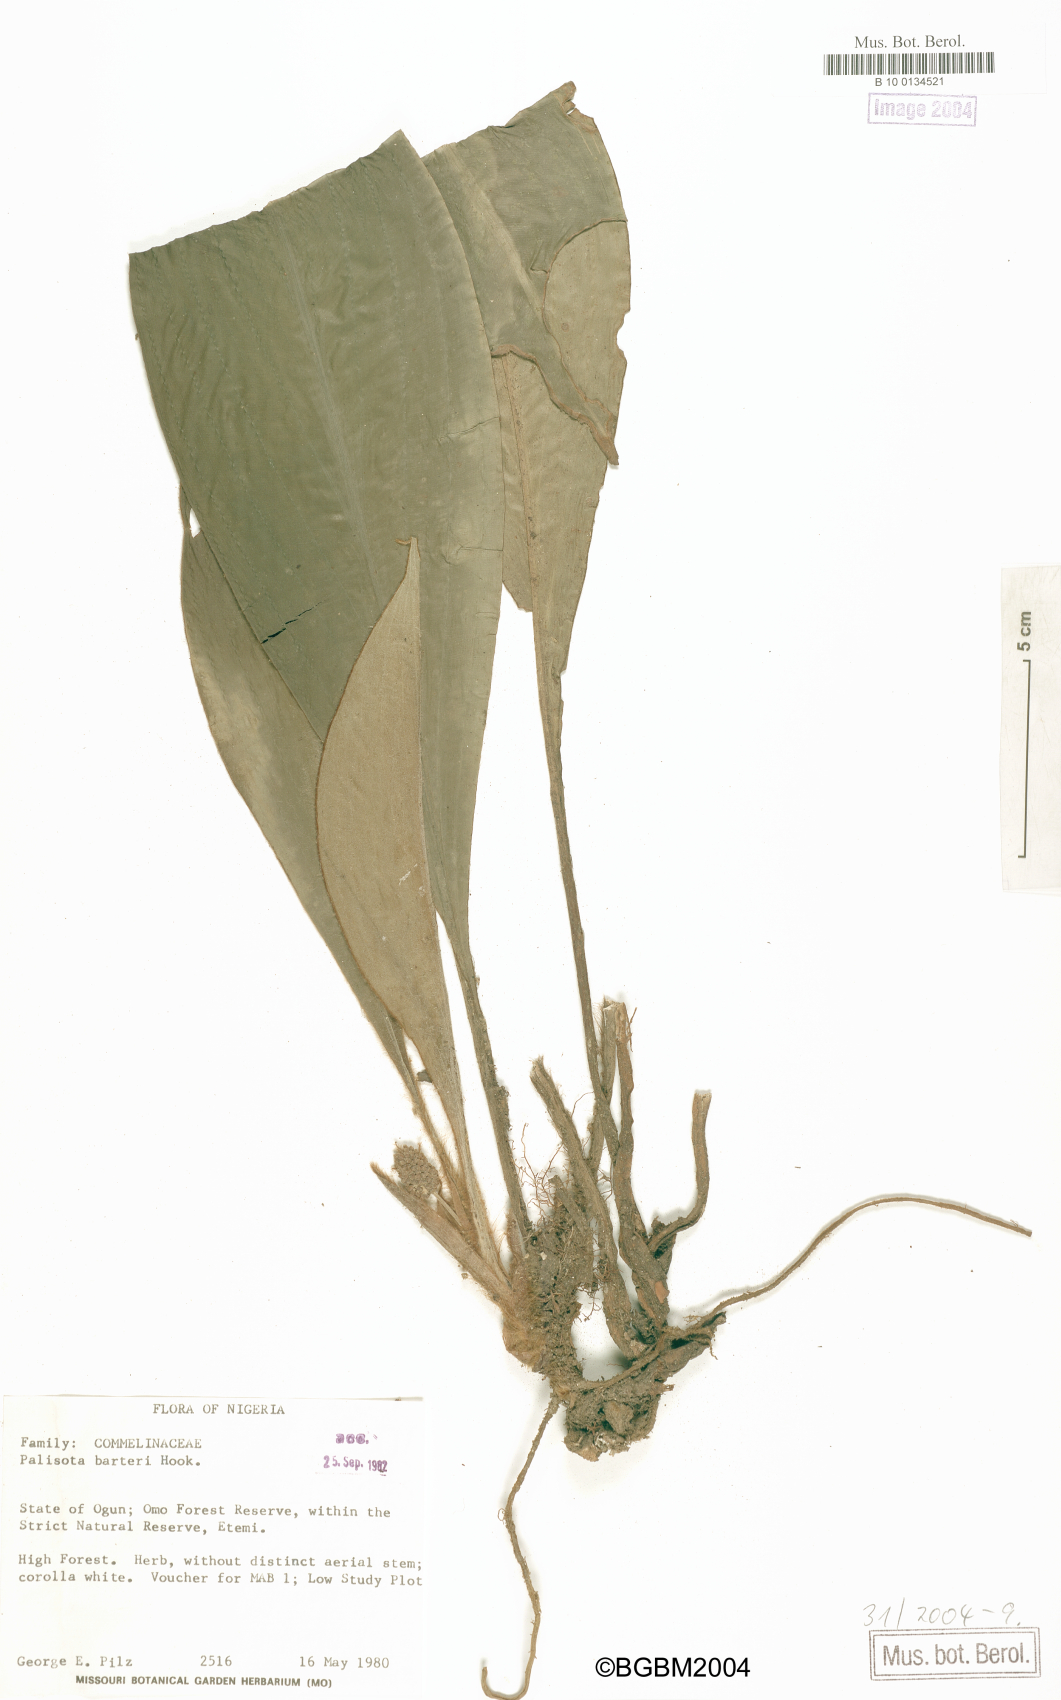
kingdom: Plantae
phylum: Tracheophyta
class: Liliopsida
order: Commelinales
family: Commelinaceae
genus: Palisota
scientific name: Palisota barteri
